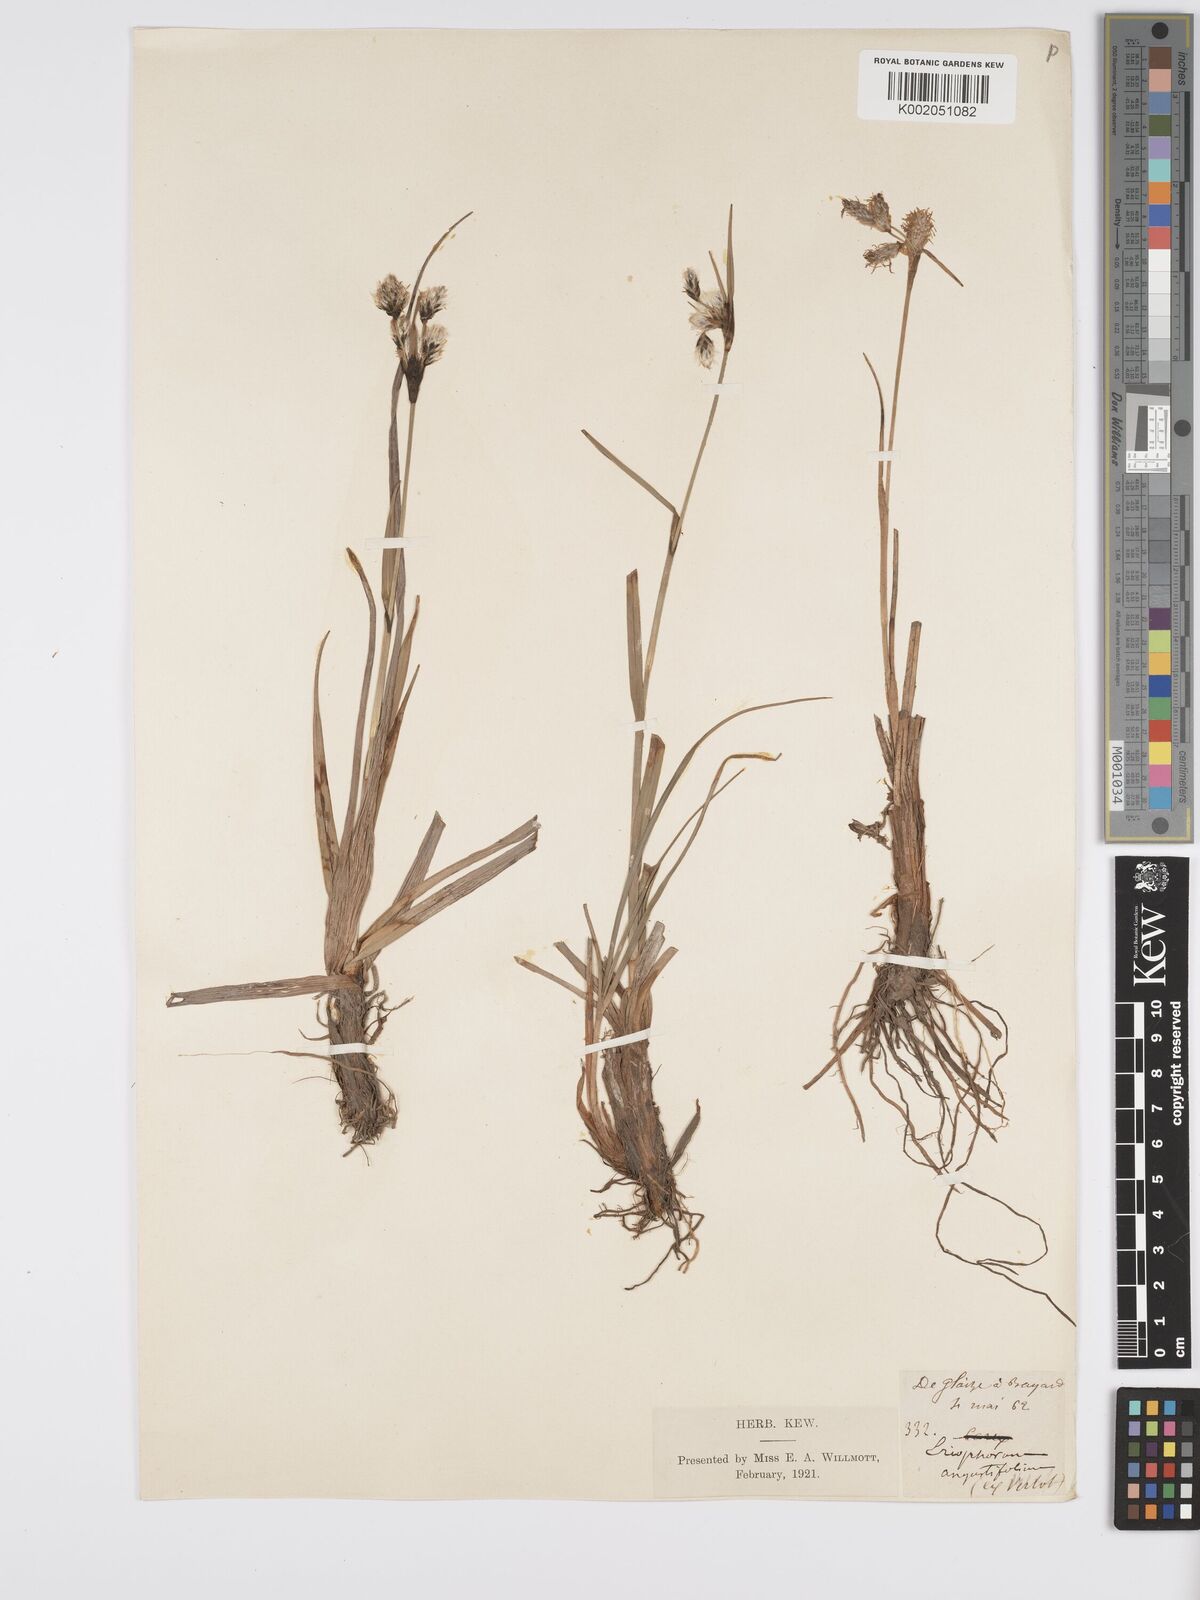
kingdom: Plantae
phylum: Tracheophyta
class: Liliopsida
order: Poales
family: Cyperaceae
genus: Eriophorum
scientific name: Eriophorum angustifolium
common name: Common cottongrass
